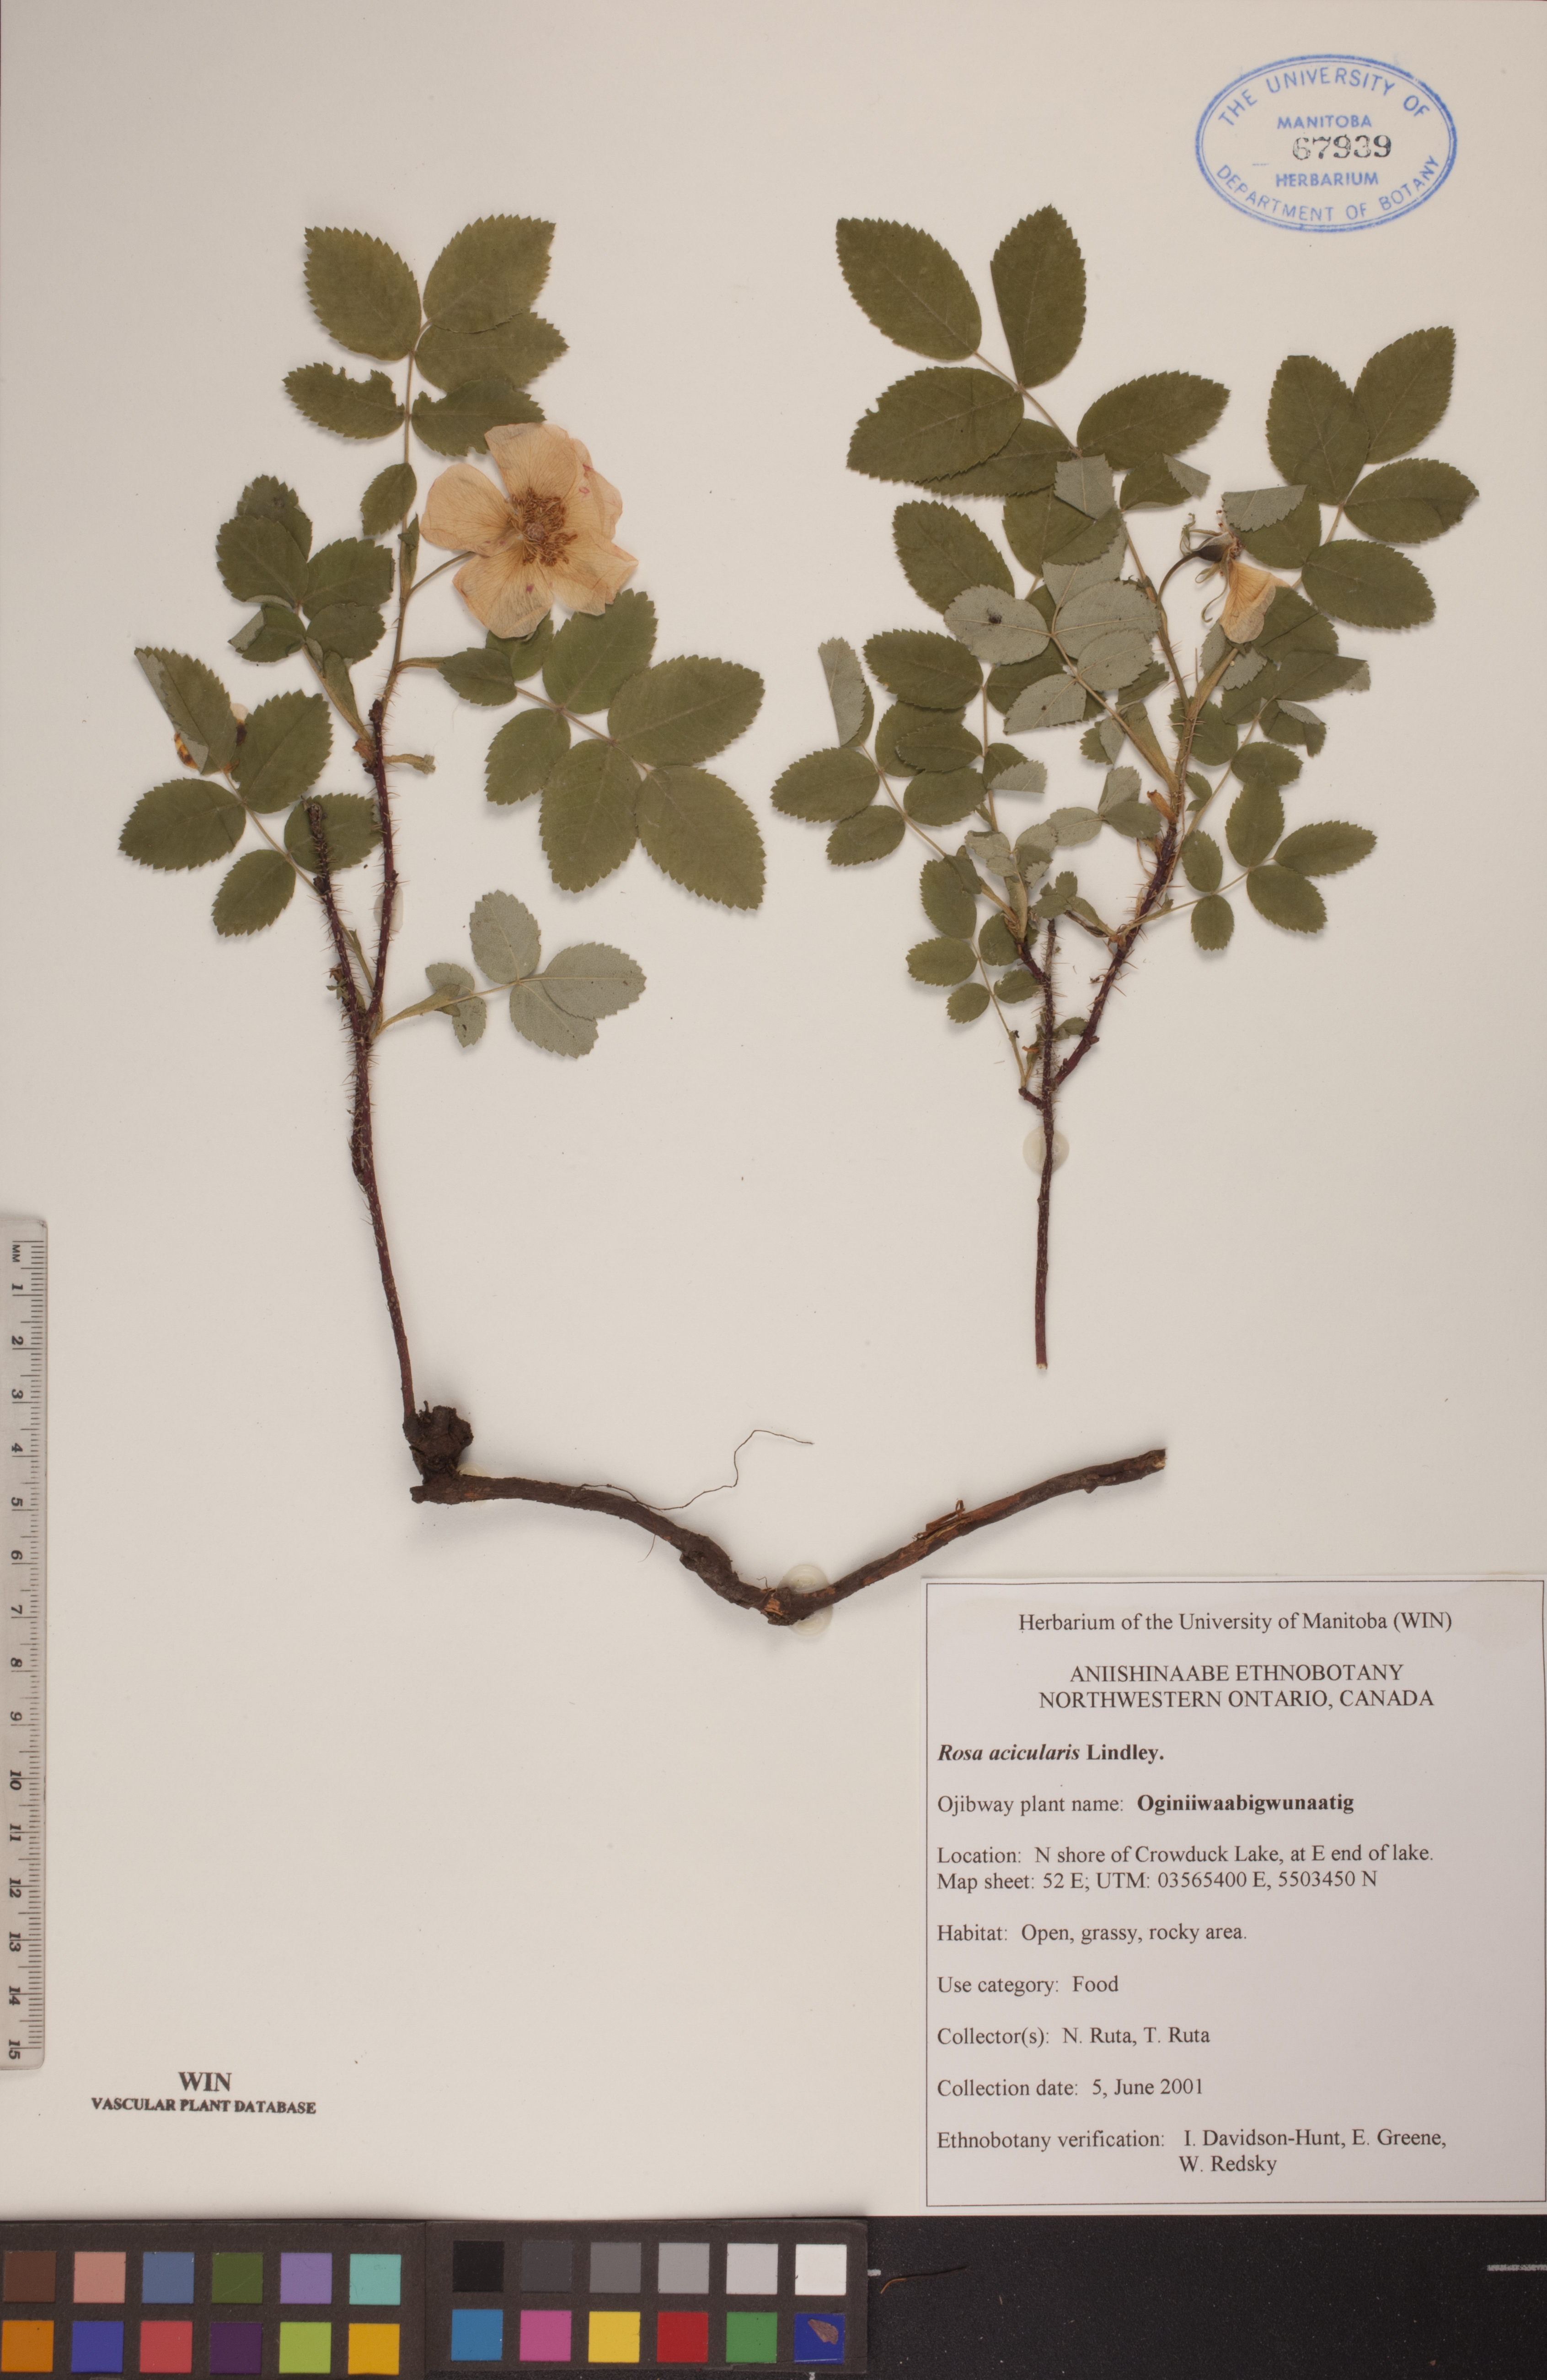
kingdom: Plantae
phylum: Tracheophyta
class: Magnoliopsida
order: Rosales
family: Rosaceae
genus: Rosa
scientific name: Rosa acicularis
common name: Prickly rose
